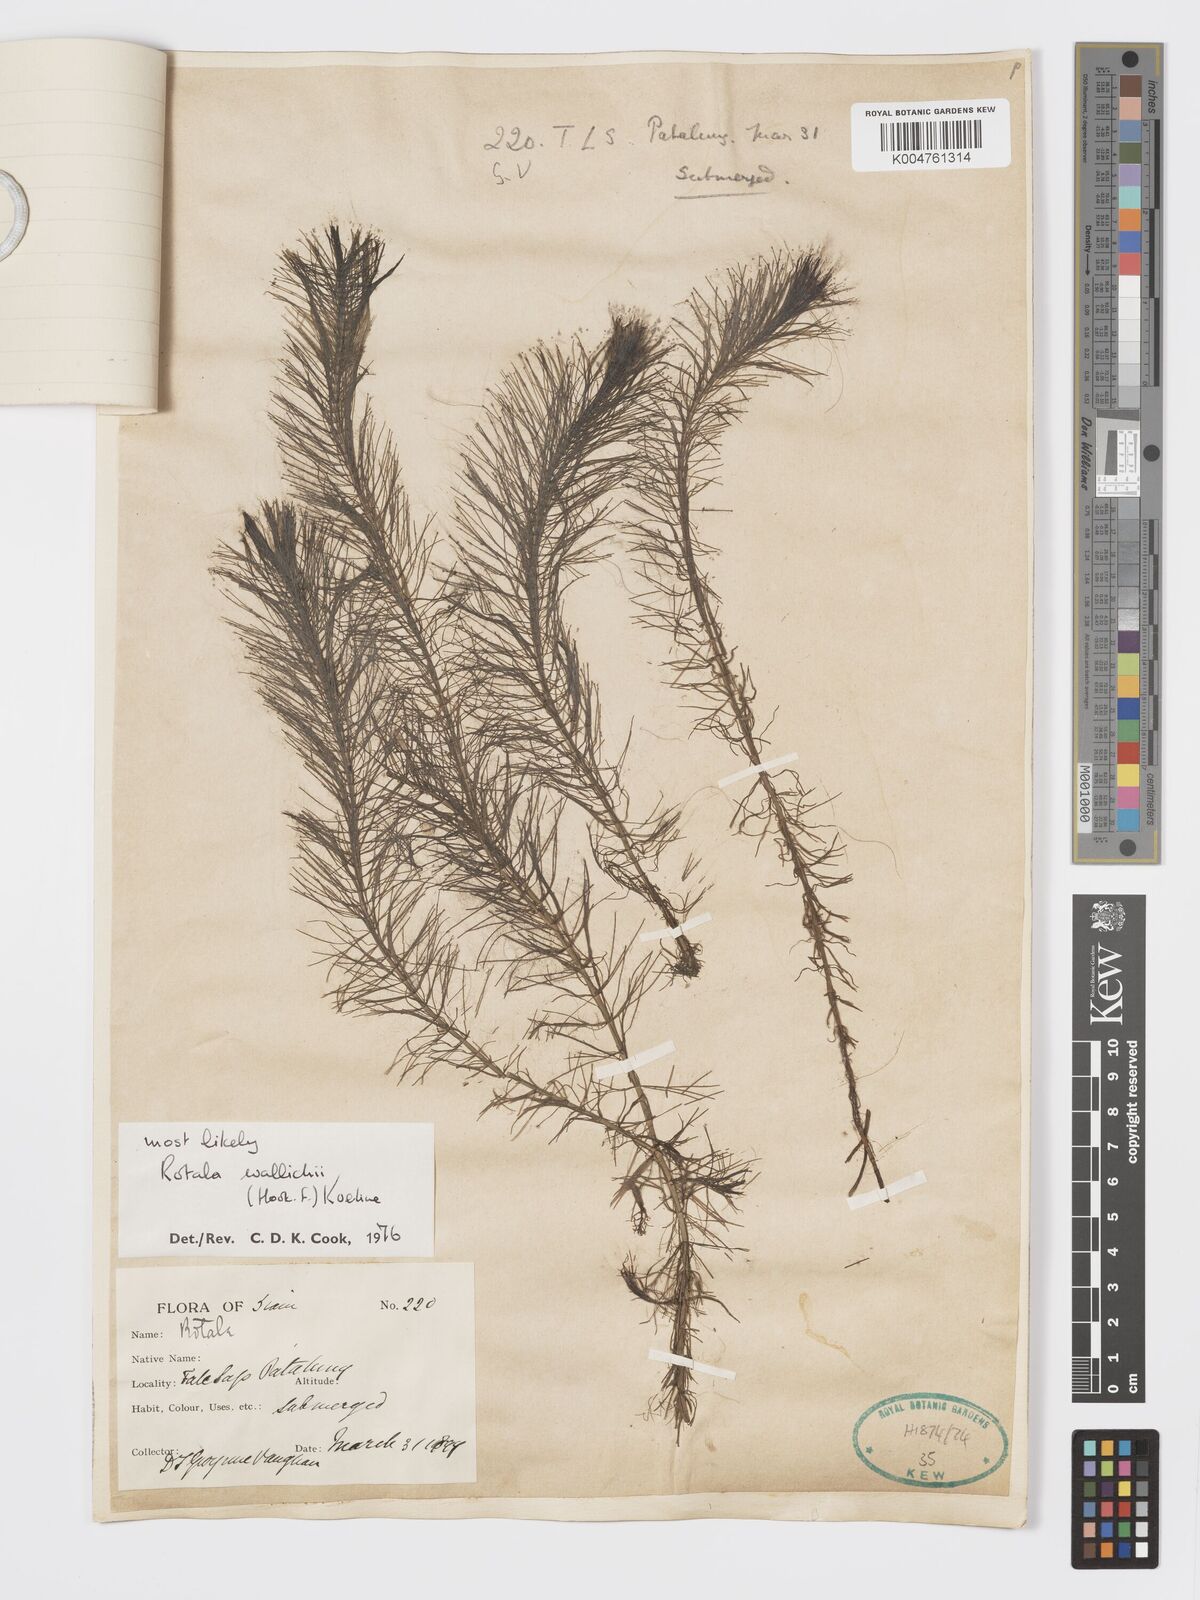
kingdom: Plantae
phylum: Tracheophyta
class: Magnoliopsida
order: Myrtales
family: Lythraceae
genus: Rotala
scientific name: Rotala wallichii
